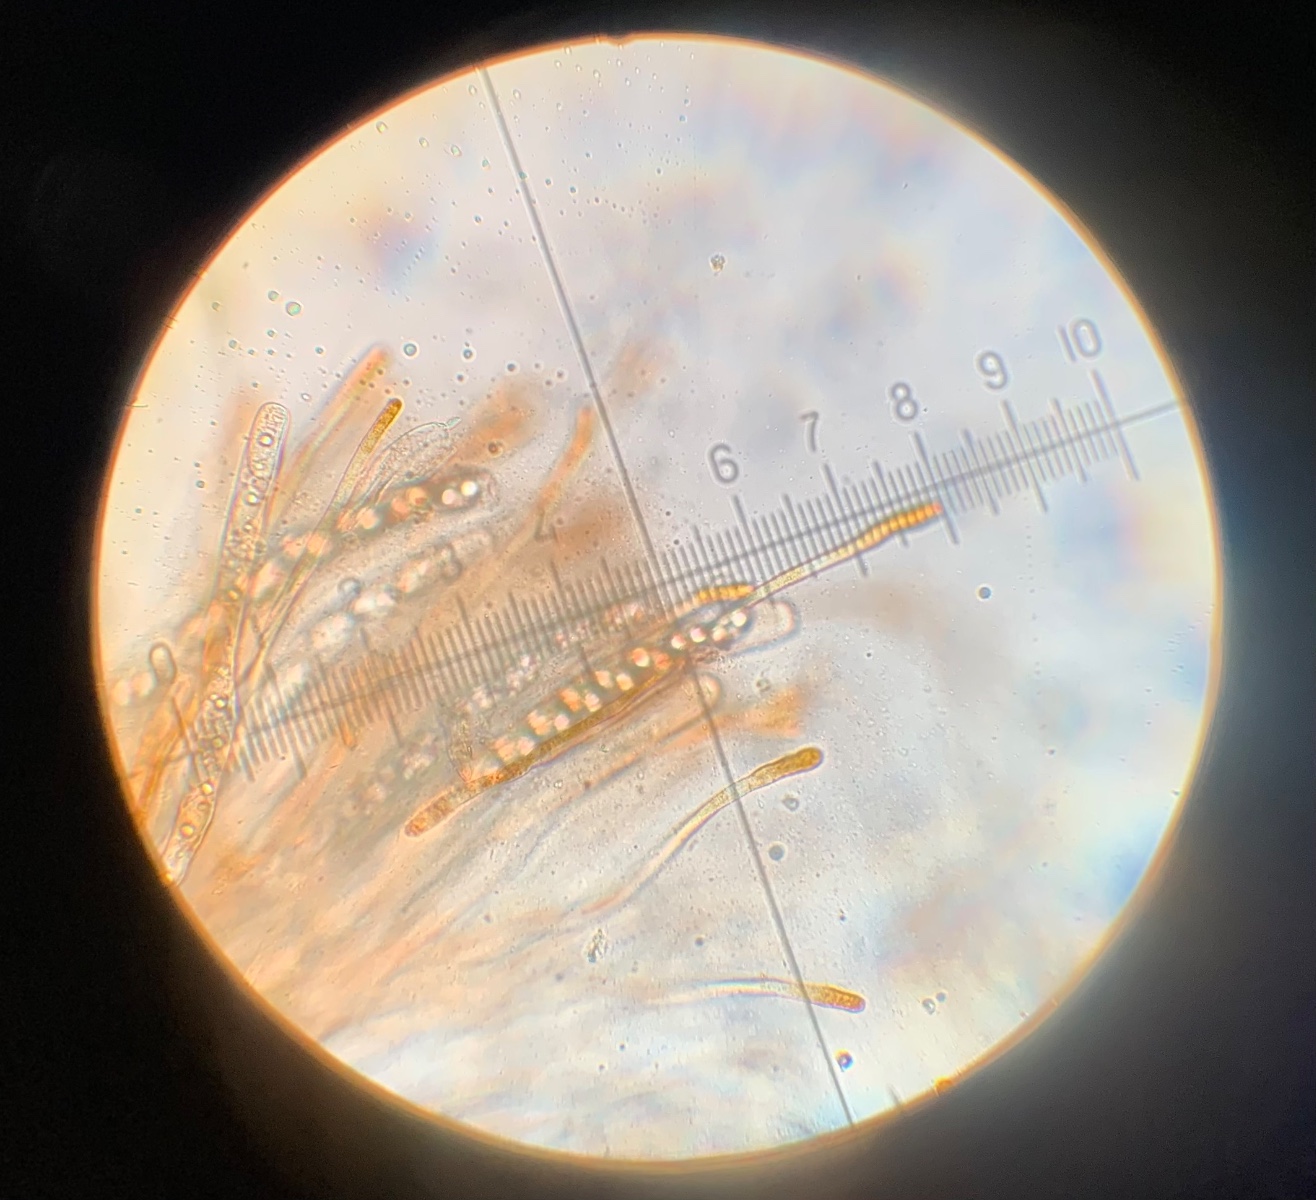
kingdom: Fungi
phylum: Ascomycota
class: Pezizomycetes
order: Pezizales
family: Pyronemataceae
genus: Neottiella
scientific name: Neottiella rutilans
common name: jomfruhår-mosbæger
